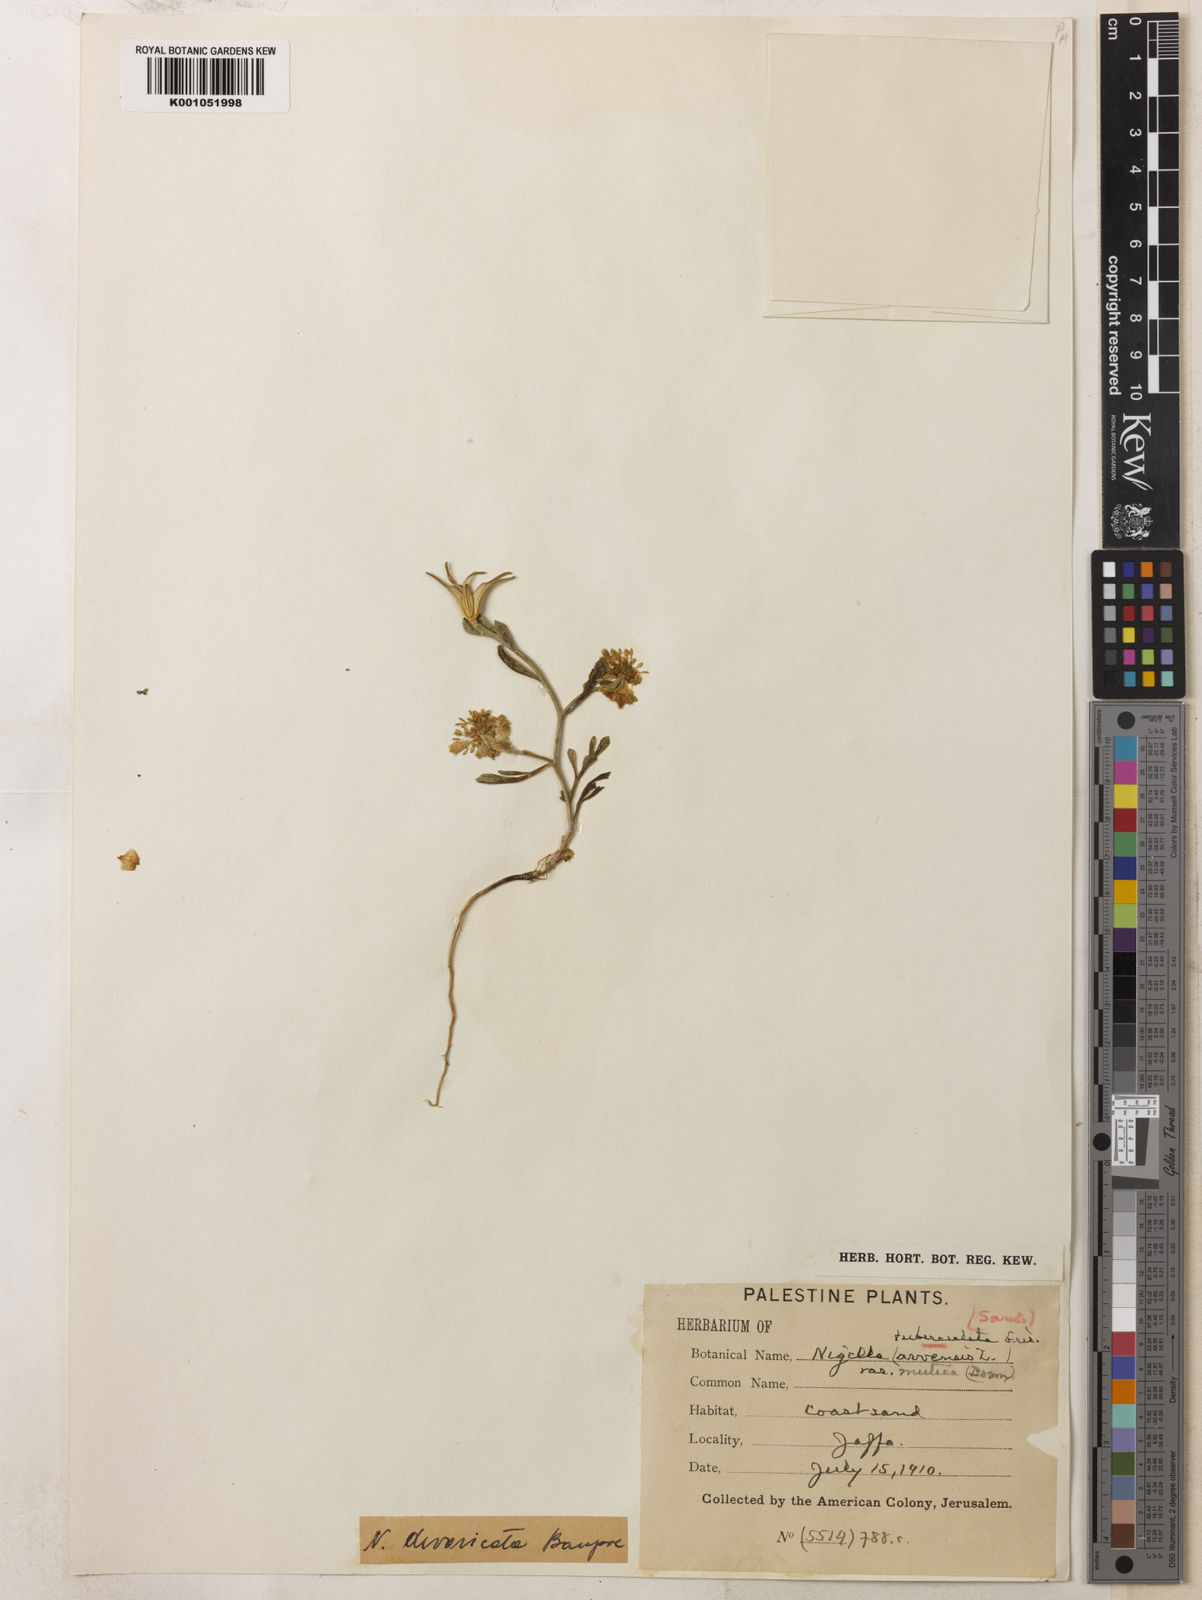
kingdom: Plantae
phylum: Tracheophyta
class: Magnoliopsida
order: Ranunculales
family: Ranunculaceae
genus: Nigella
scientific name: Nigella arvensis
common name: Wild fennel-flower
